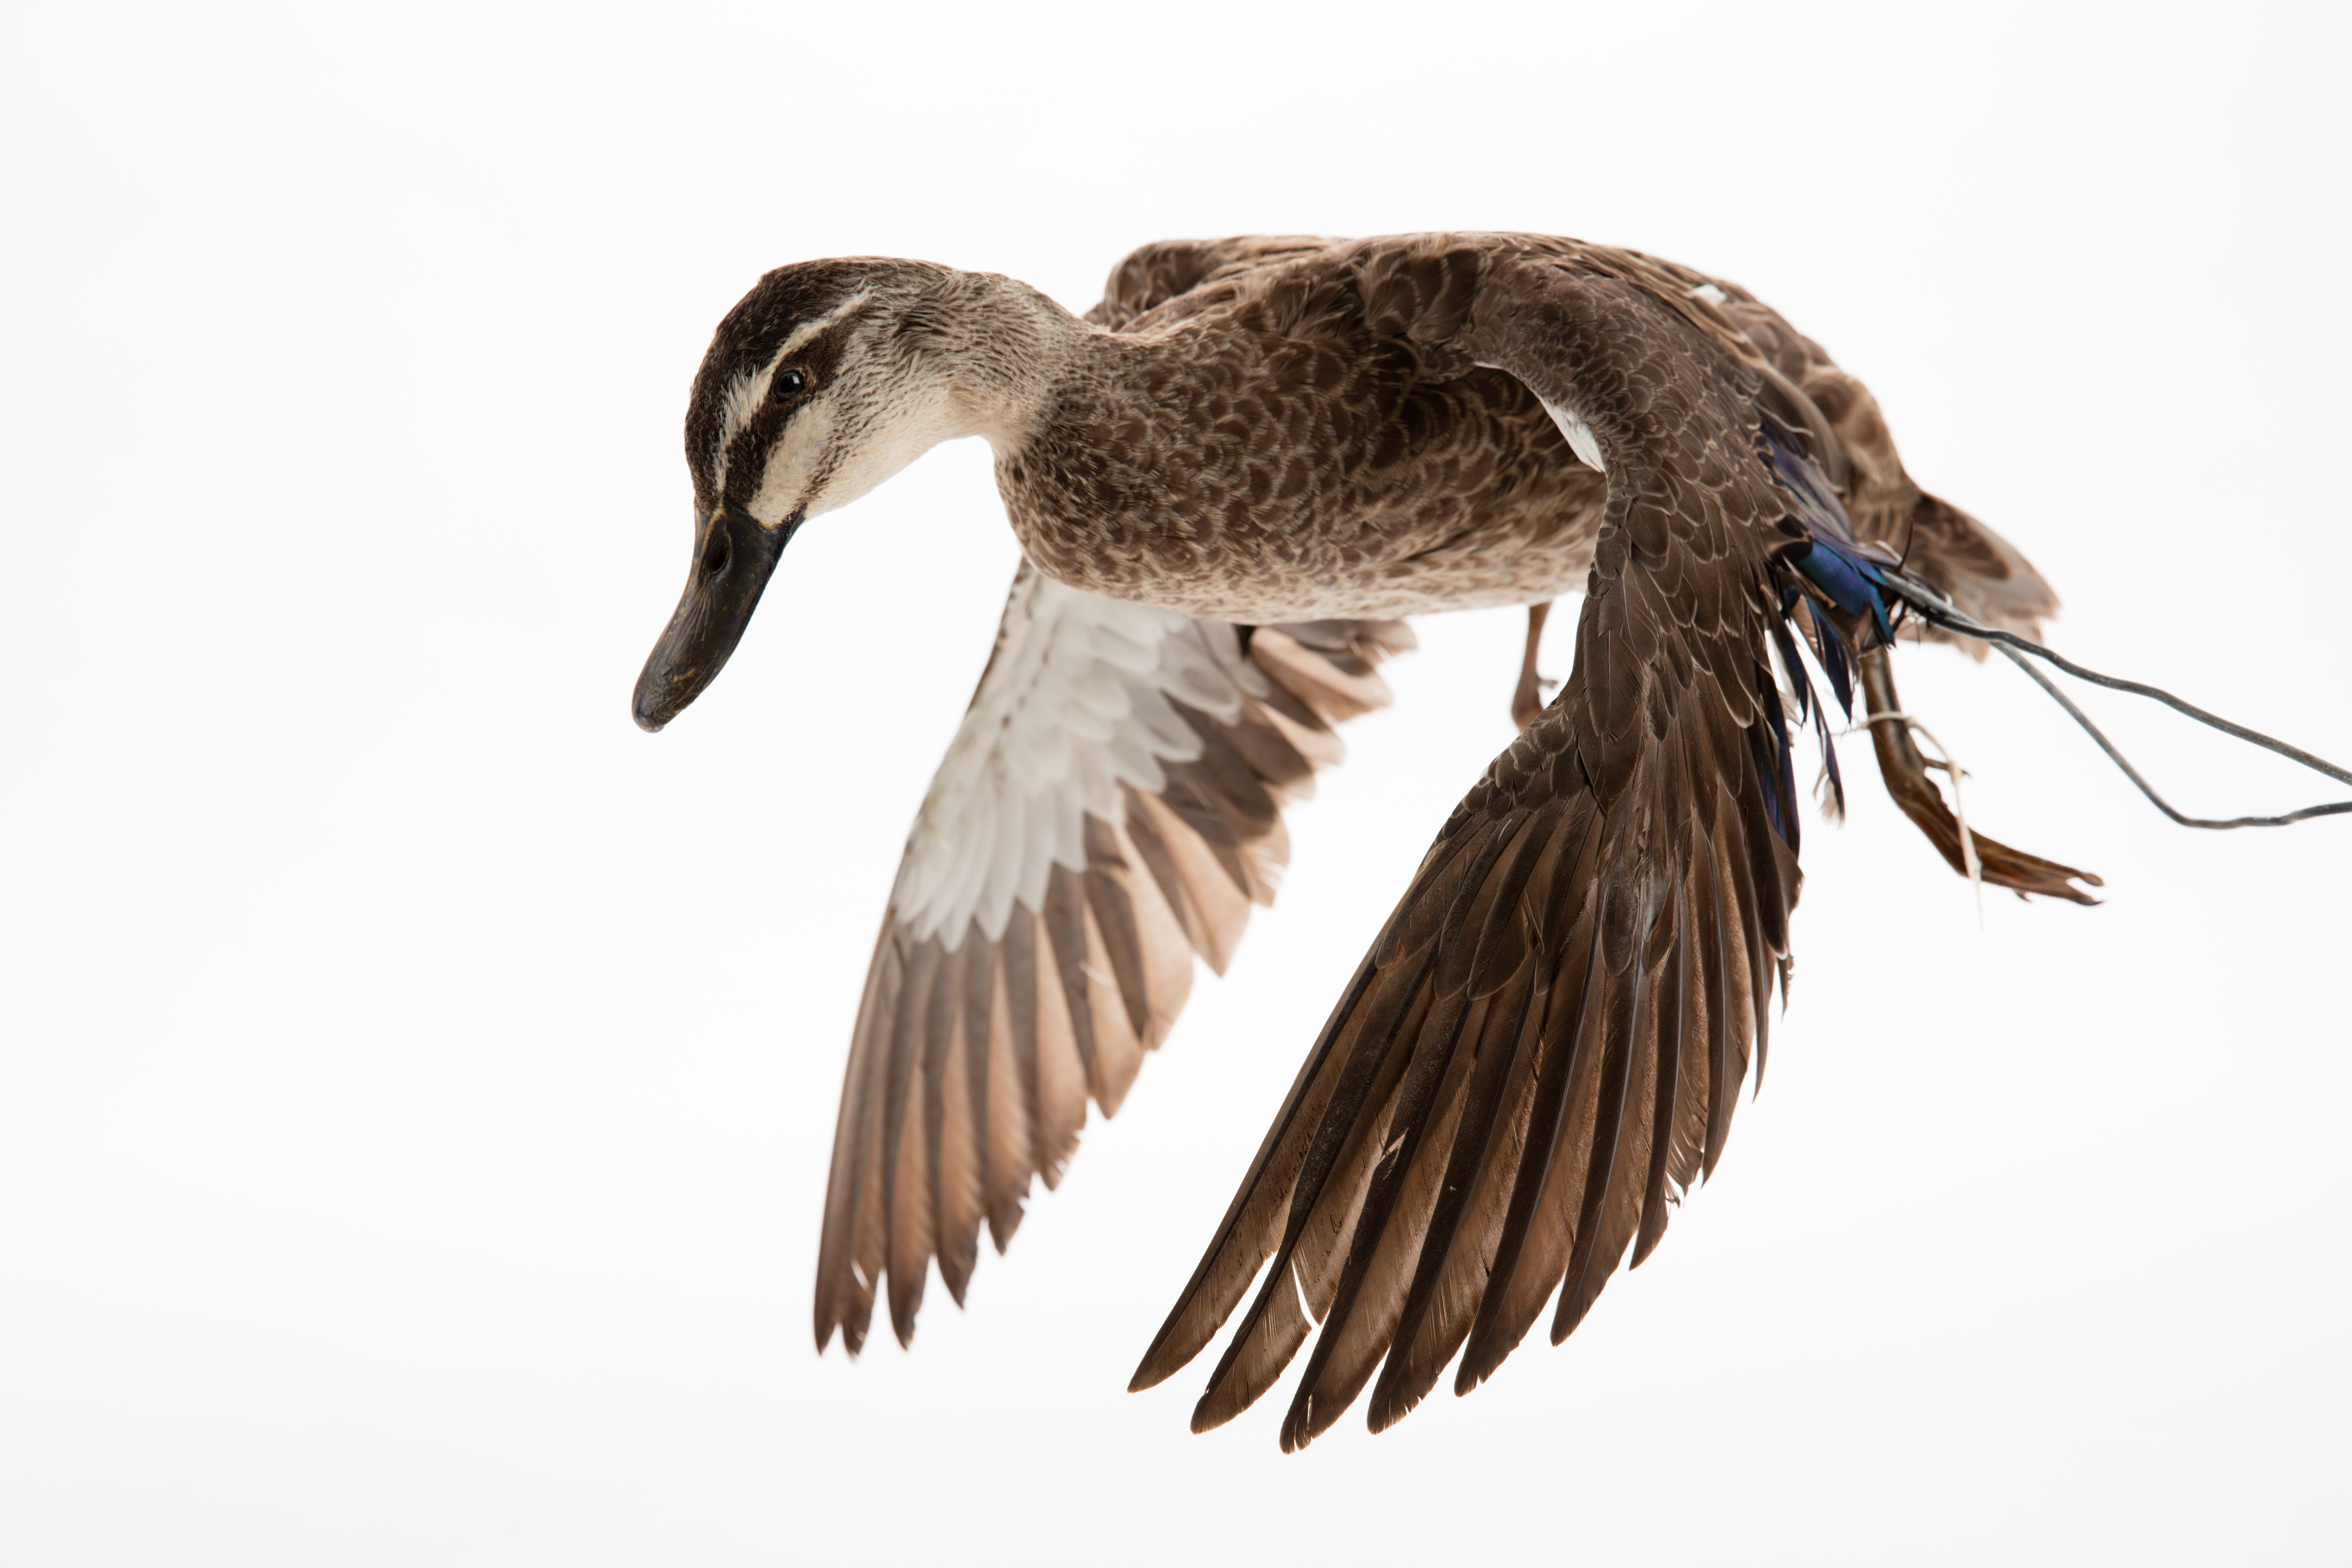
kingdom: Animalia
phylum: Chordata
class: Aves
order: Anseriformes
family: Anatidae
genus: Anas
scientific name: Anas superciliosa
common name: Pacific black duck
